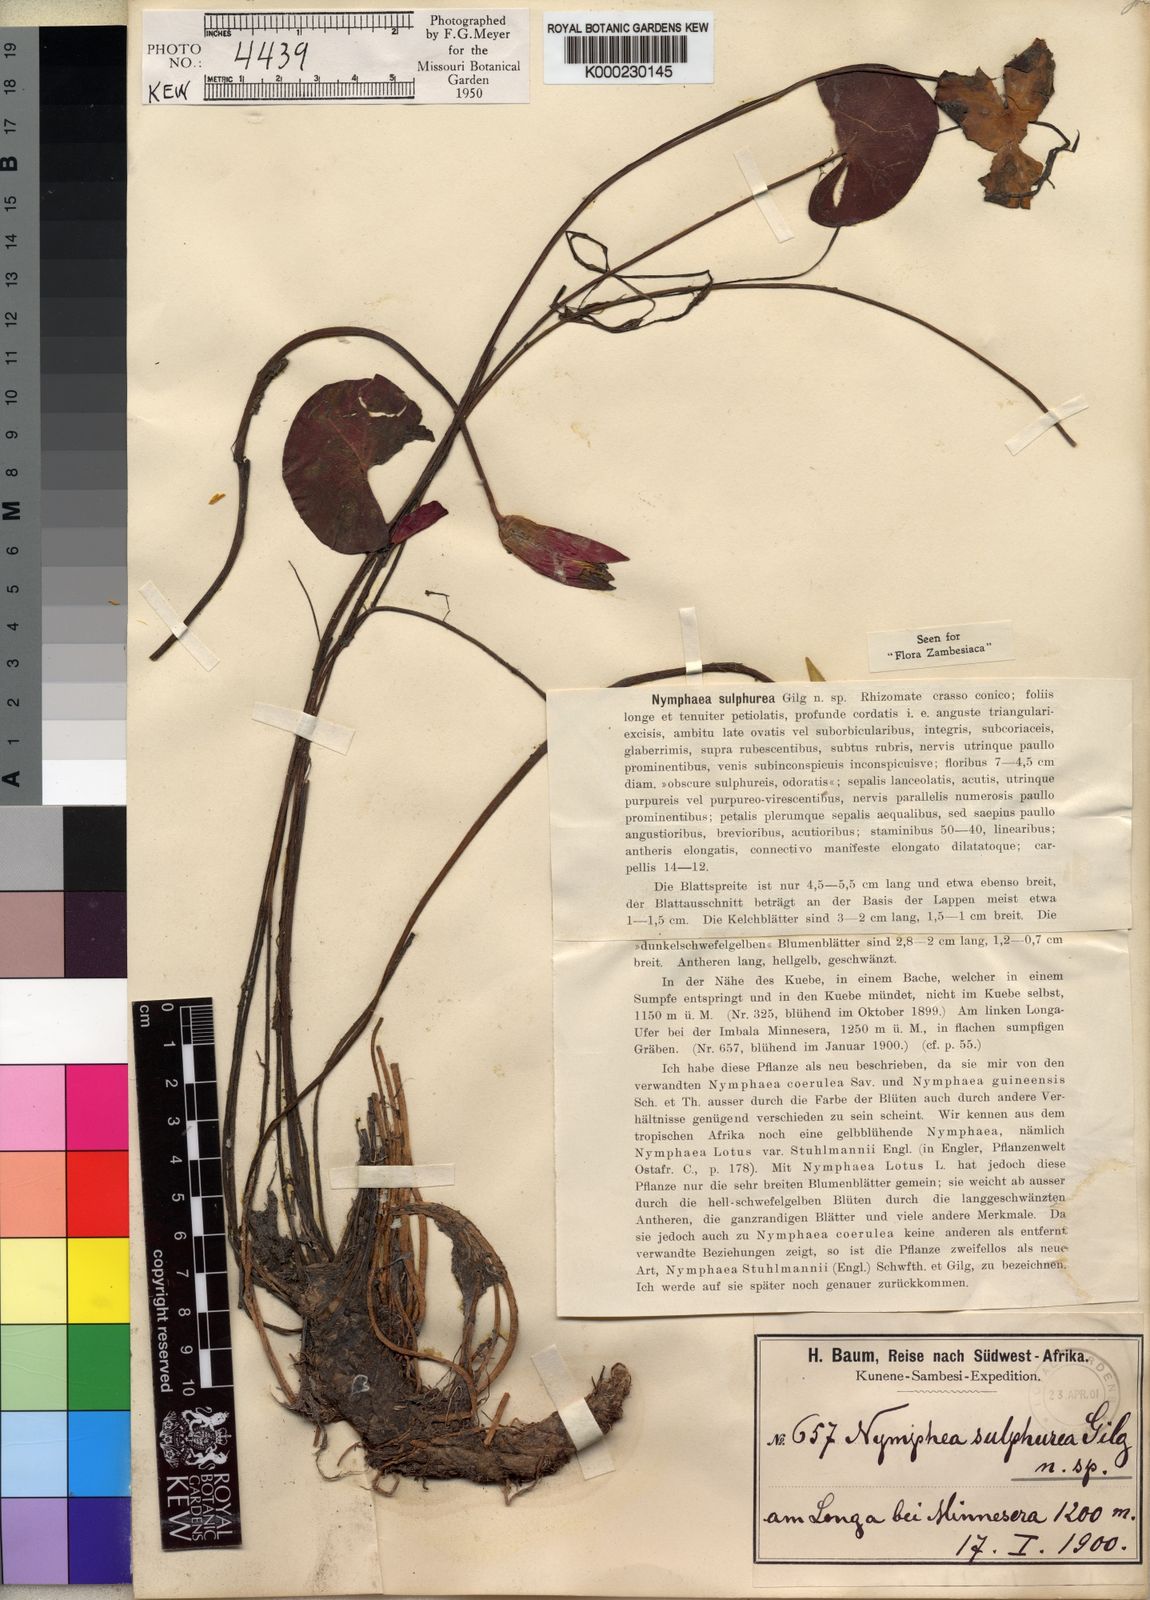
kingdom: Plantae
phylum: Tracheophyta
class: Magnoliopsida
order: Nymphaeales
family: Nymphaeaceae
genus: Nymphaea
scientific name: Nymphaea sulphurea
